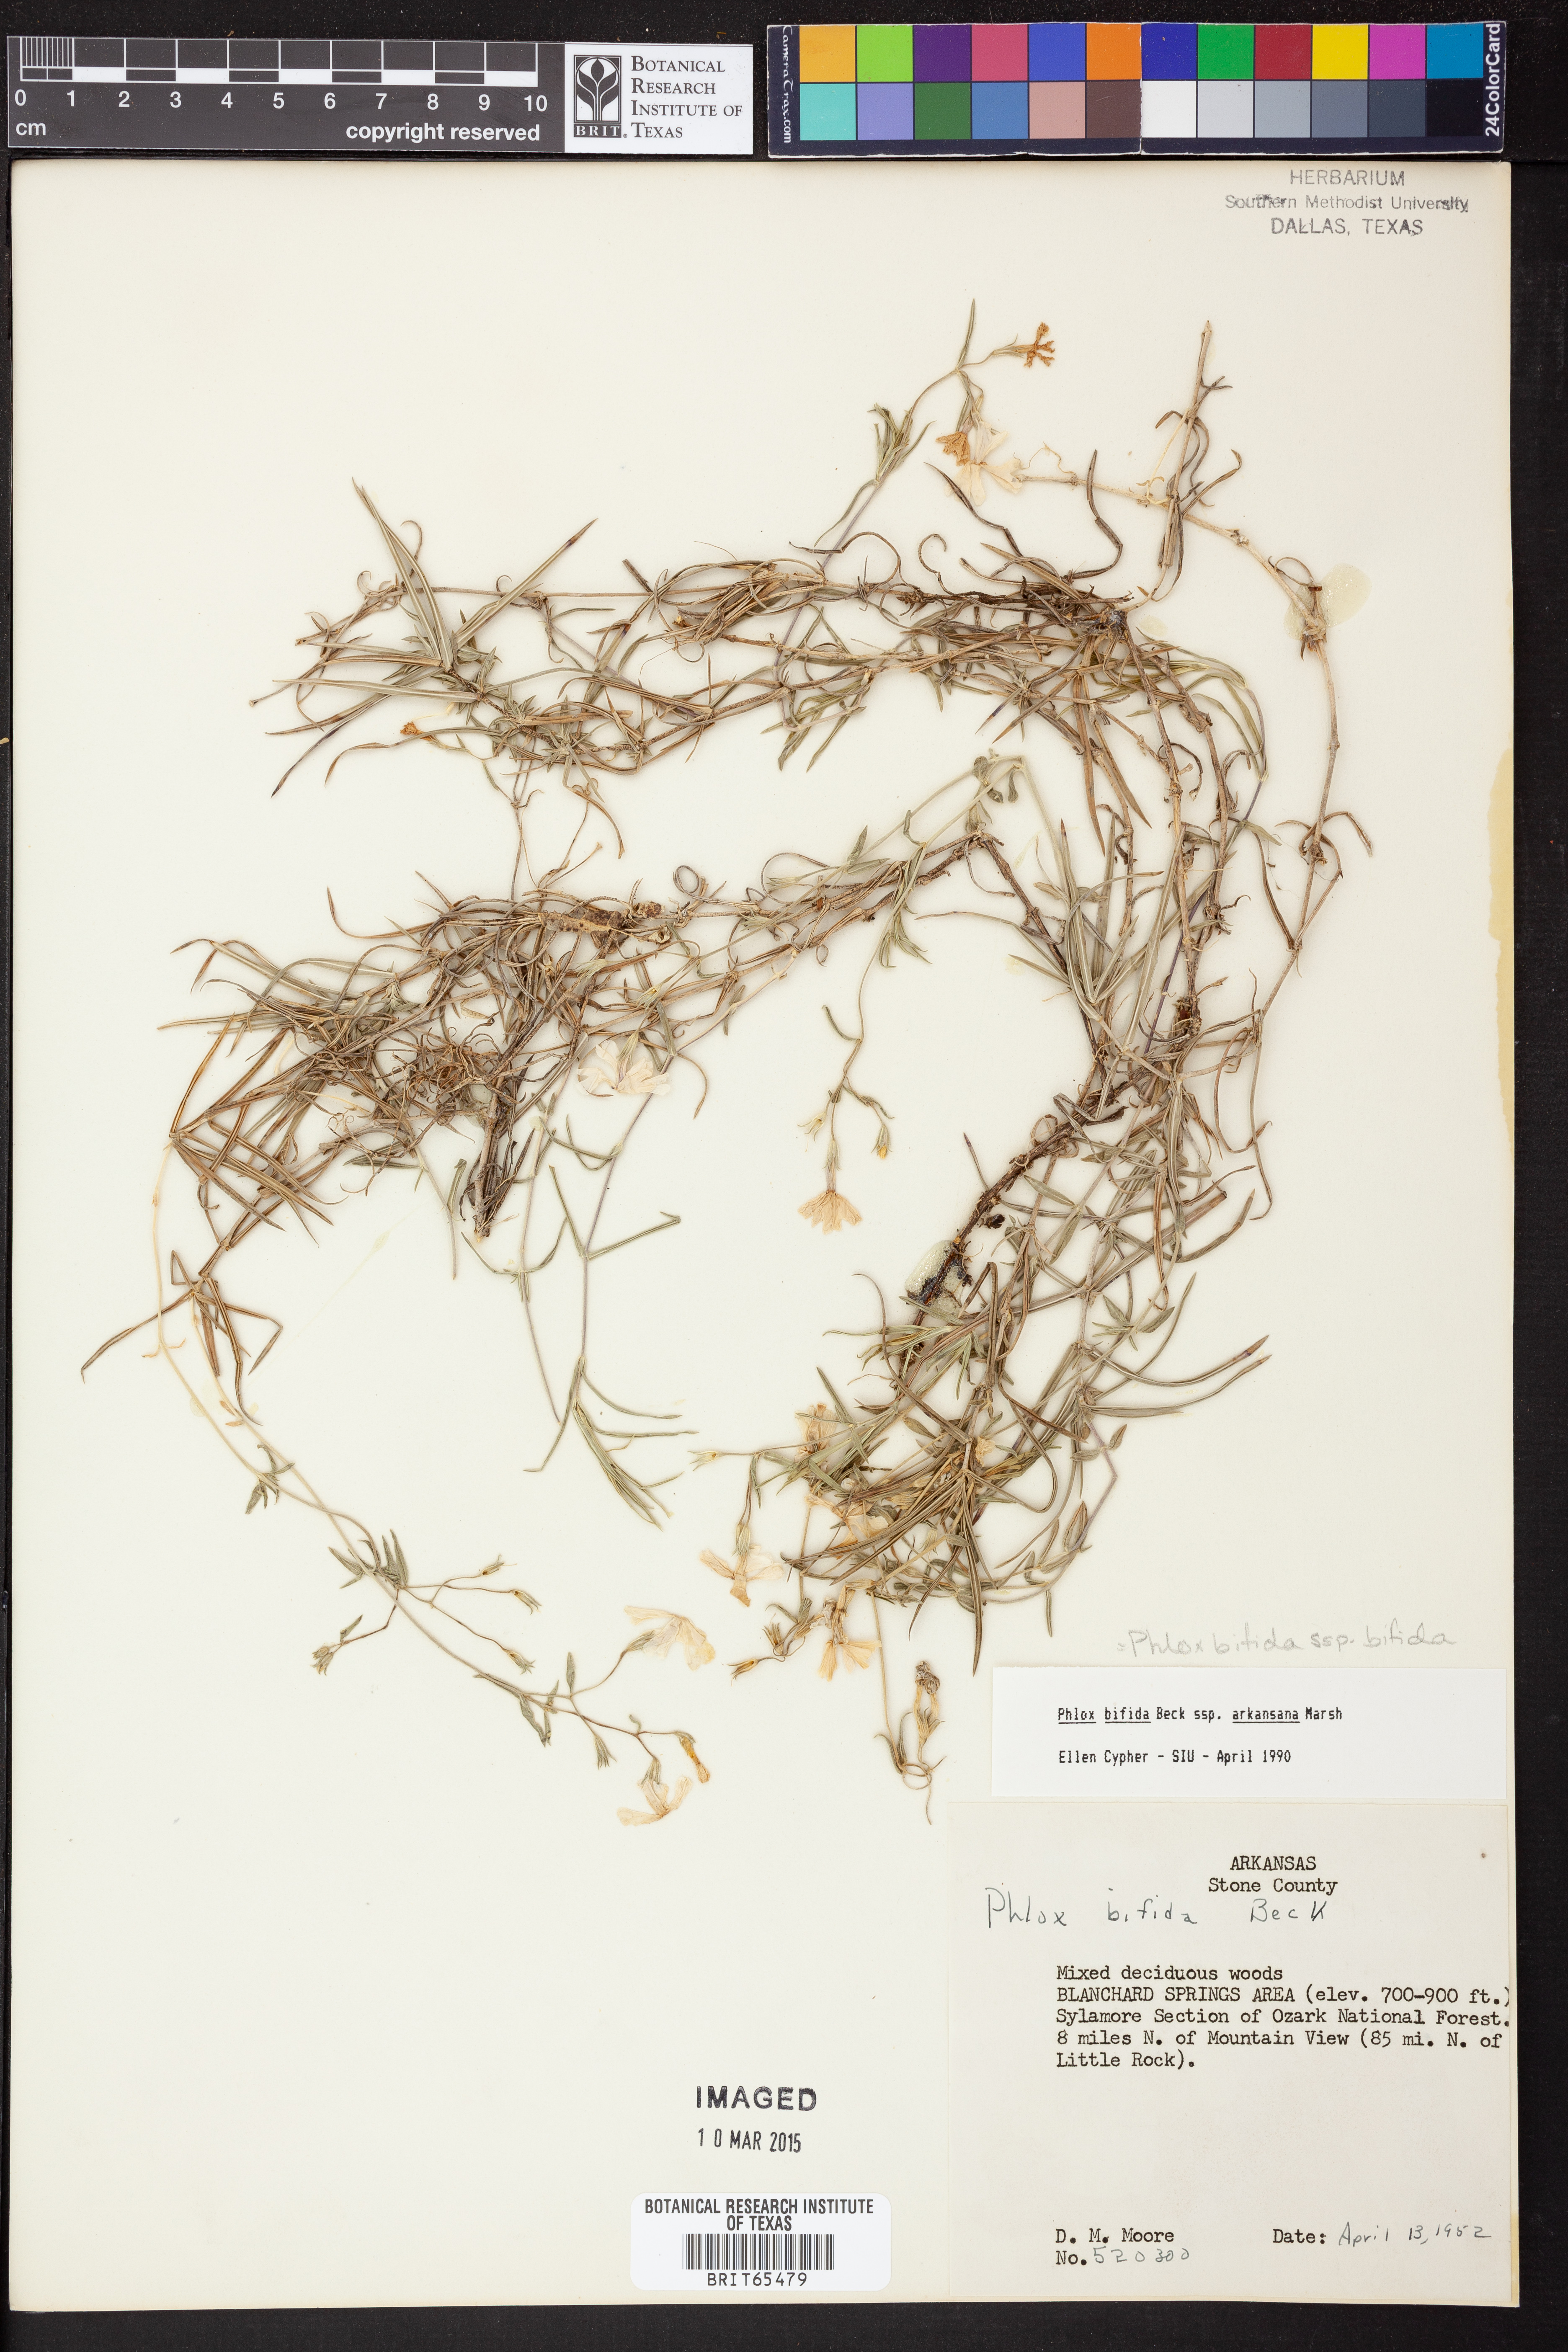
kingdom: Plantae
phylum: Tracheophyta
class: Magnoliopsida
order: Ericales
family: Polemoniaceae
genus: Phlox
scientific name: Phlox bifida
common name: Sand phlox
